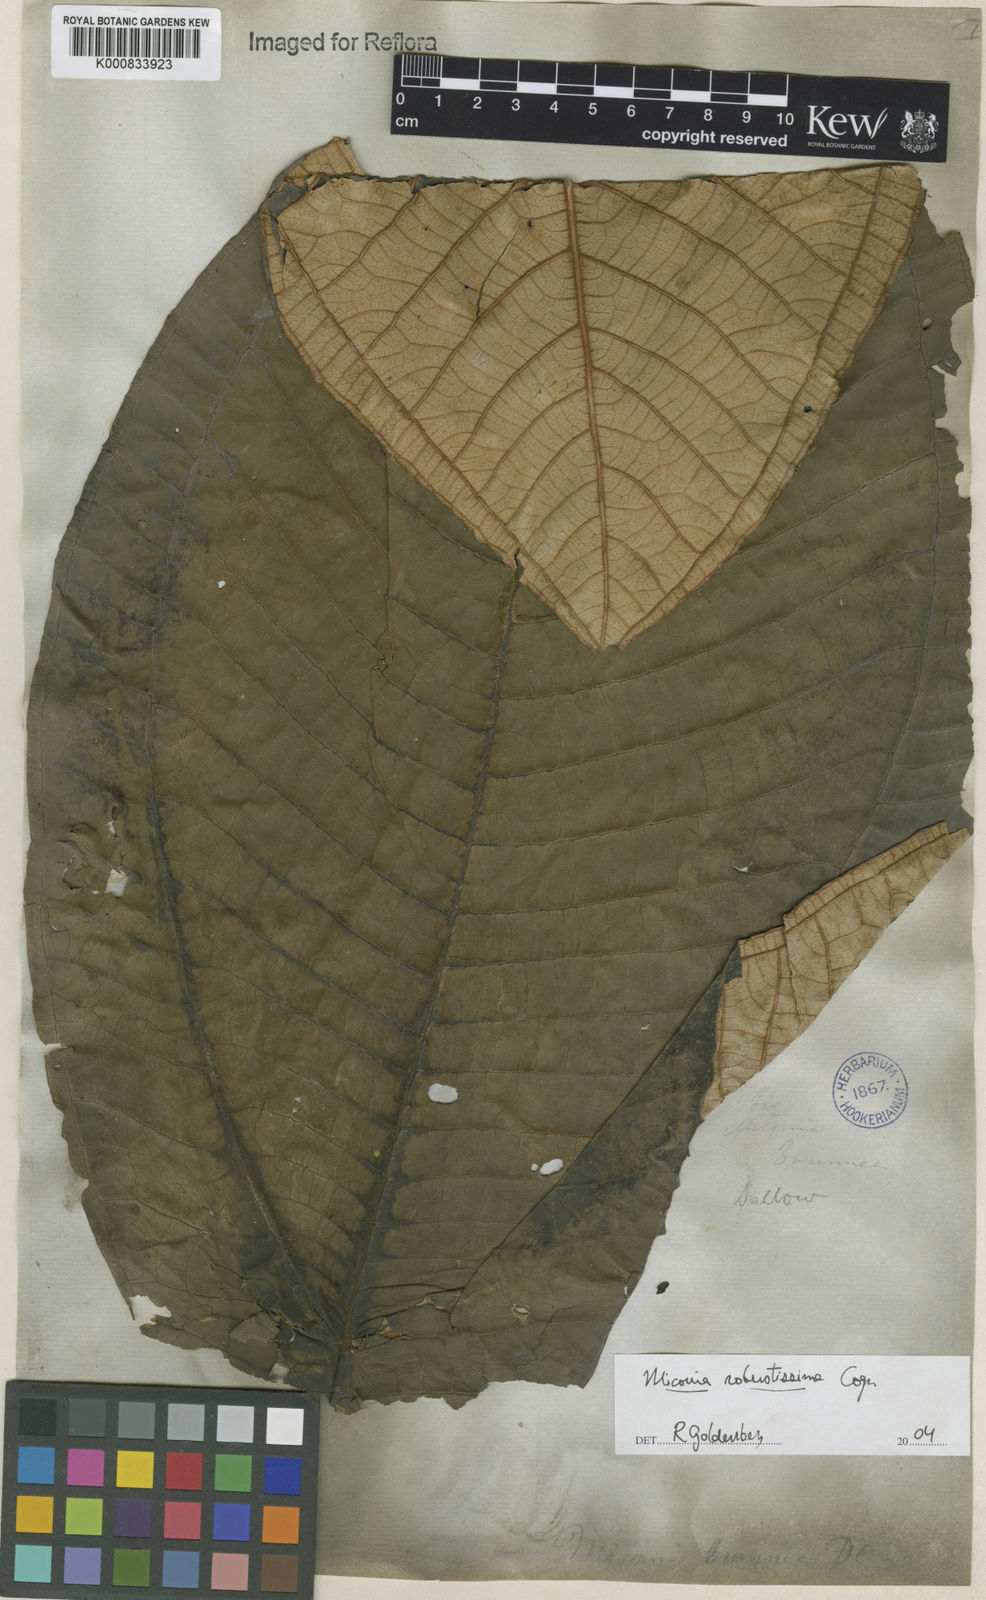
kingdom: Plantae
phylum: Tracheophyta
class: Magnoliopsida
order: Myrtales
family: Melastomataceae
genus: Miconia
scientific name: Miconia brunnea
